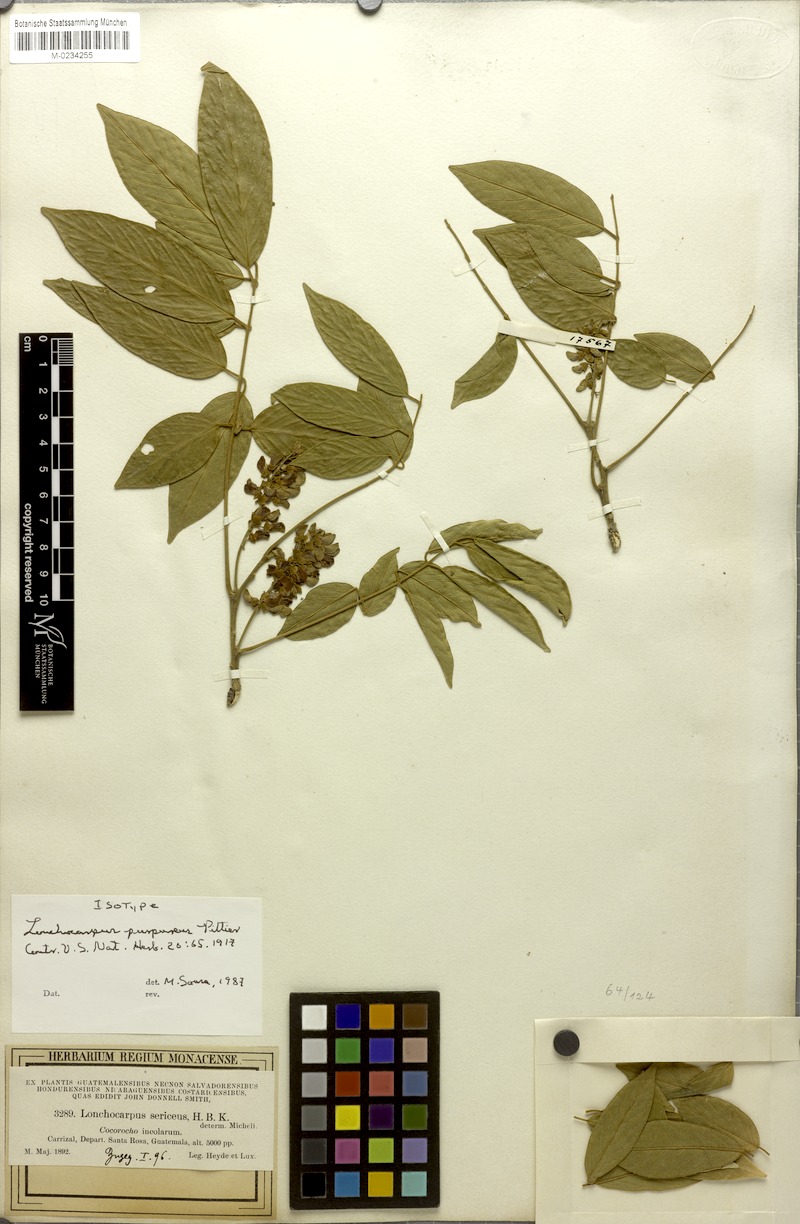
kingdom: Plantae
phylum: Tracheophyta
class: Magnoliopsida
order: Fabales
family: Fabaceae
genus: Lonchocarpus
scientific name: Lonchocarpus purpureus
